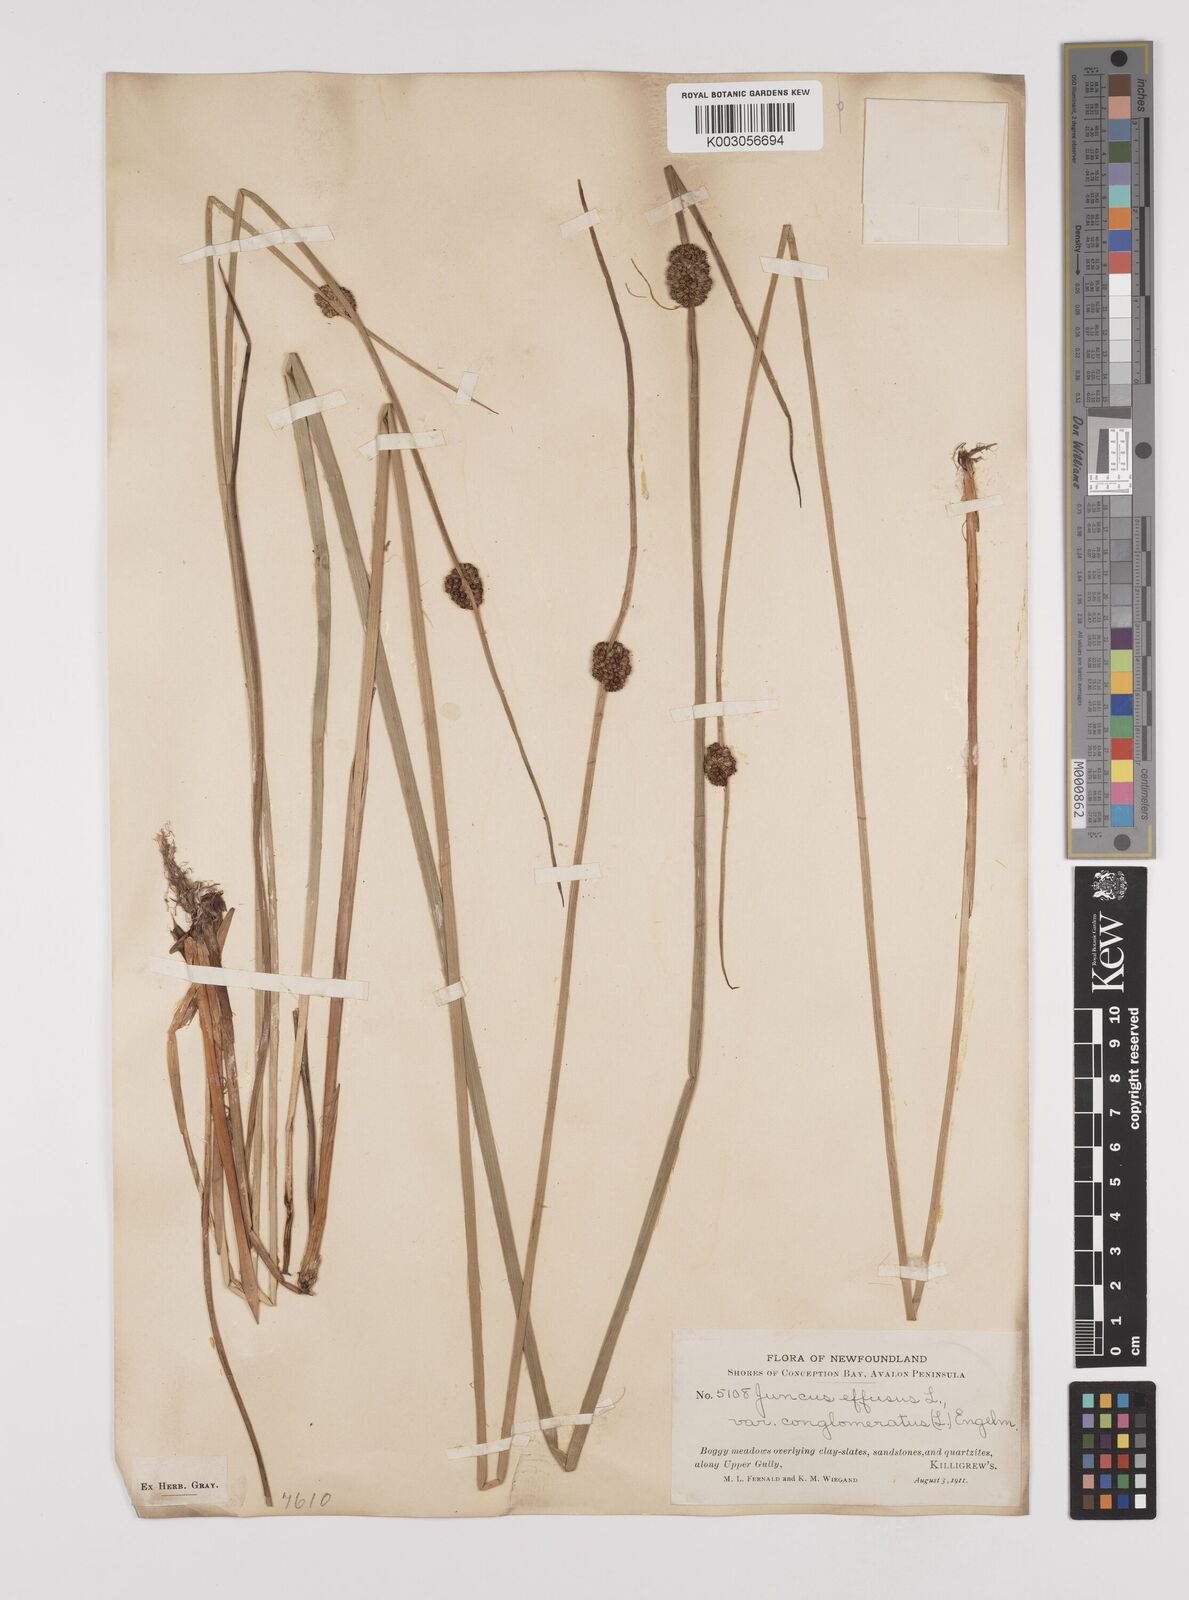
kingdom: Plantae
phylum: Tracheophyta
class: Liliopsida
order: Poales
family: Juncaceae
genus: Juncus
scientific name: Juncus conglomeratus
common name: Compact rush
